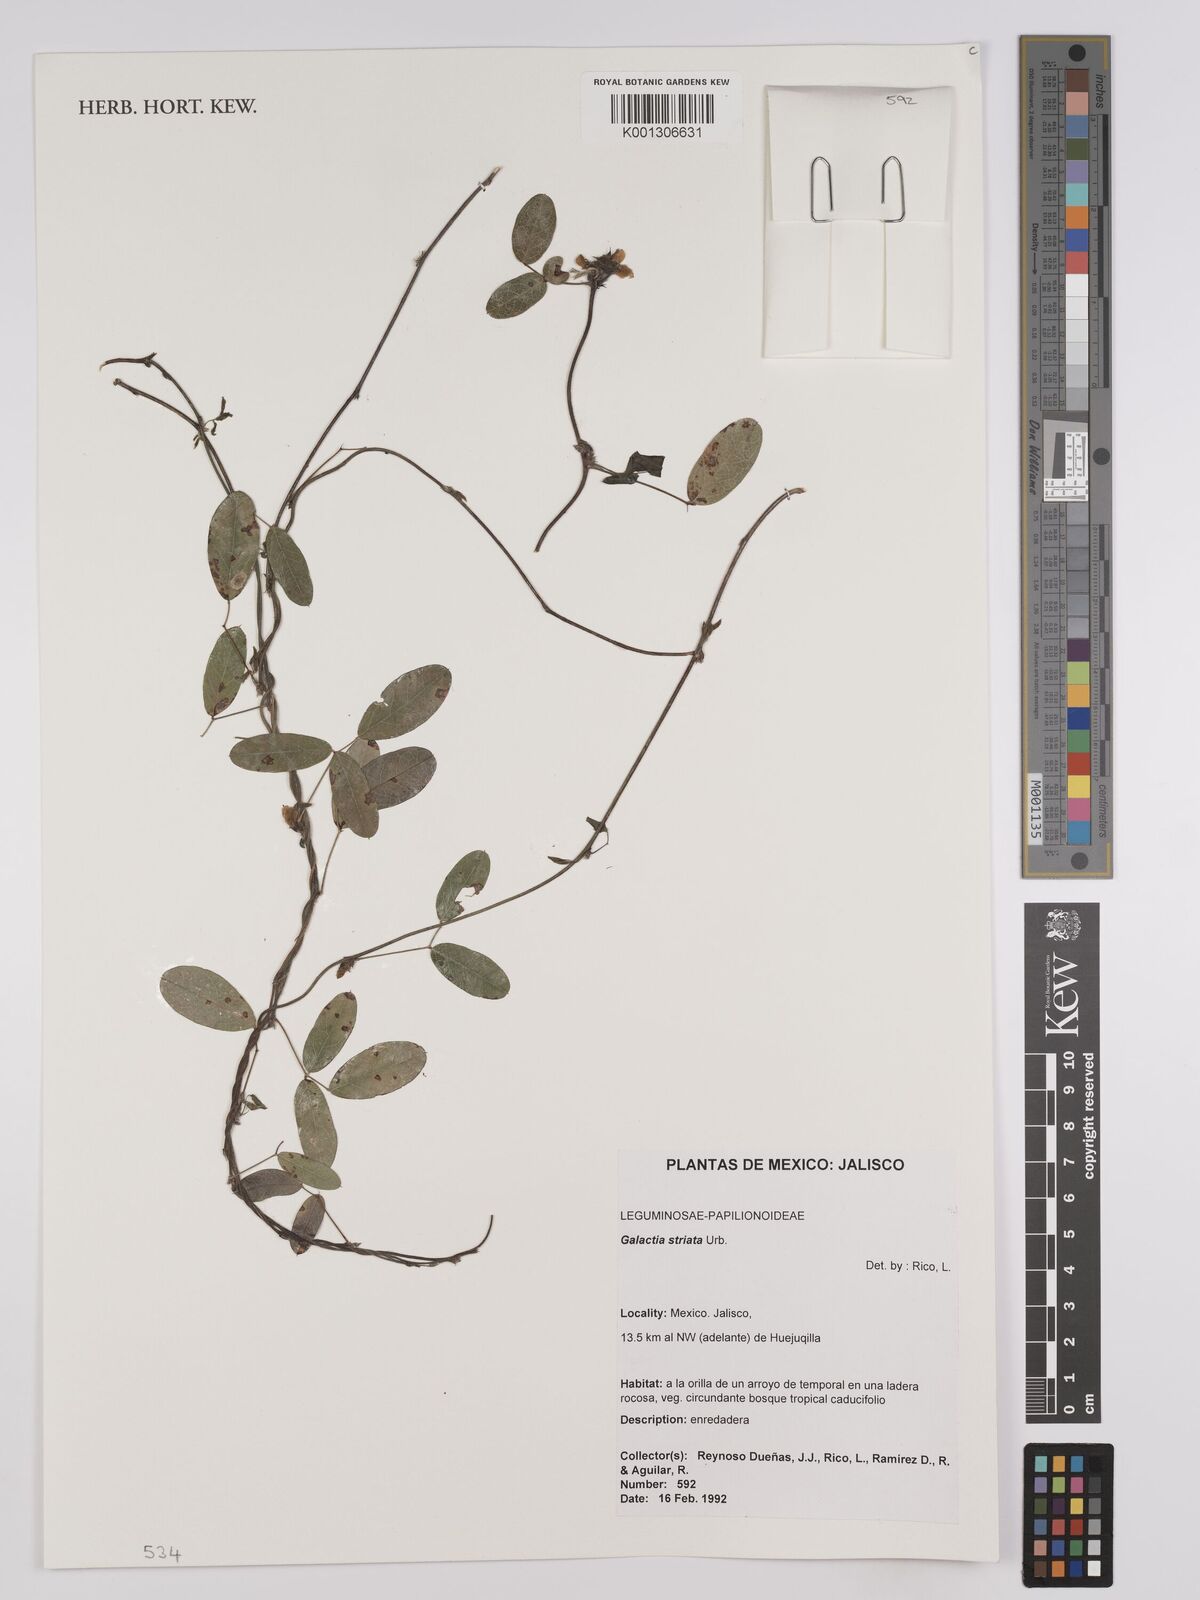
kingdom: Plantae
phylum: Tracheophyta
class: Magnoliopsida
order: Fabales
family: Fabaceae
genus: Galactia
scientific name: Galactia striata
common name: Florida hammock milkpea
